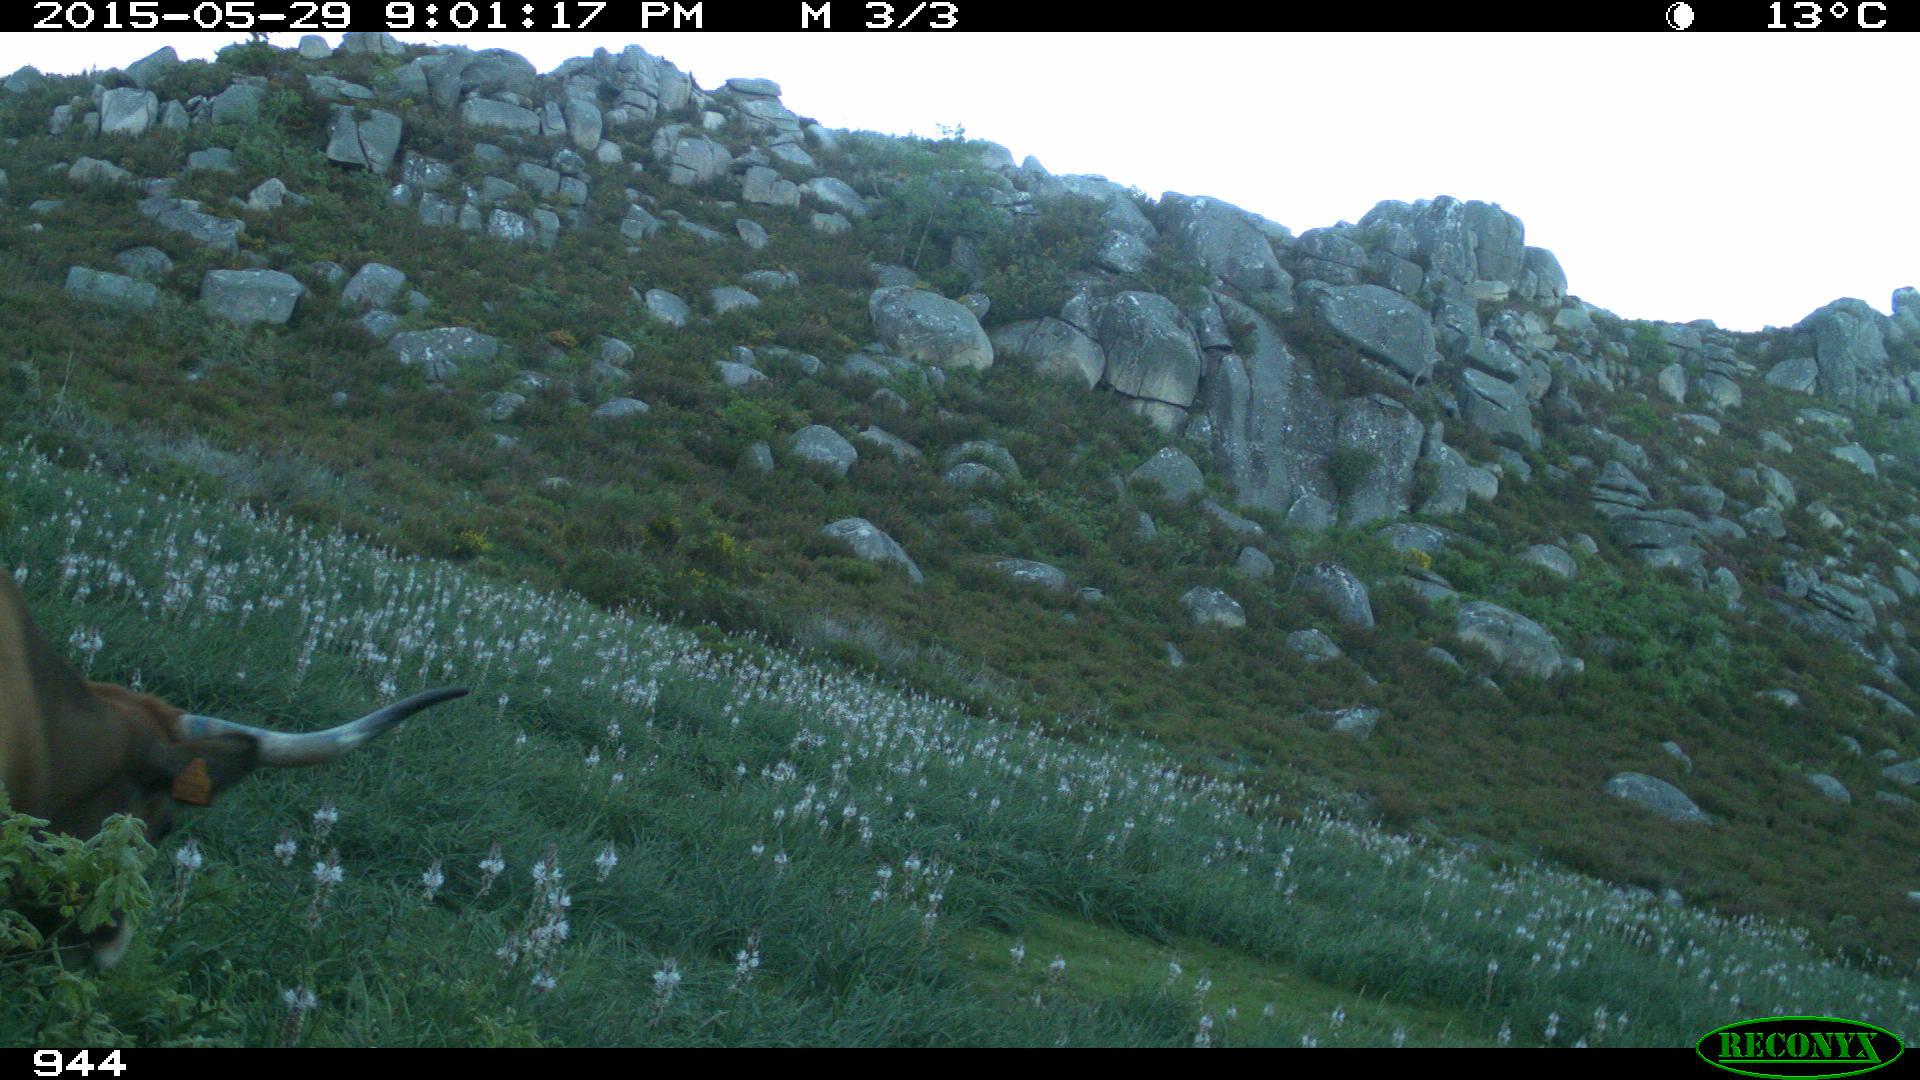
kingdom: Animalia
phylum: Chordata
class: Mammalia
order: Artiodactyla
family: Bovidae
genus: Bos
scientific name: Bos taurus
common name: Domesticated cattle
